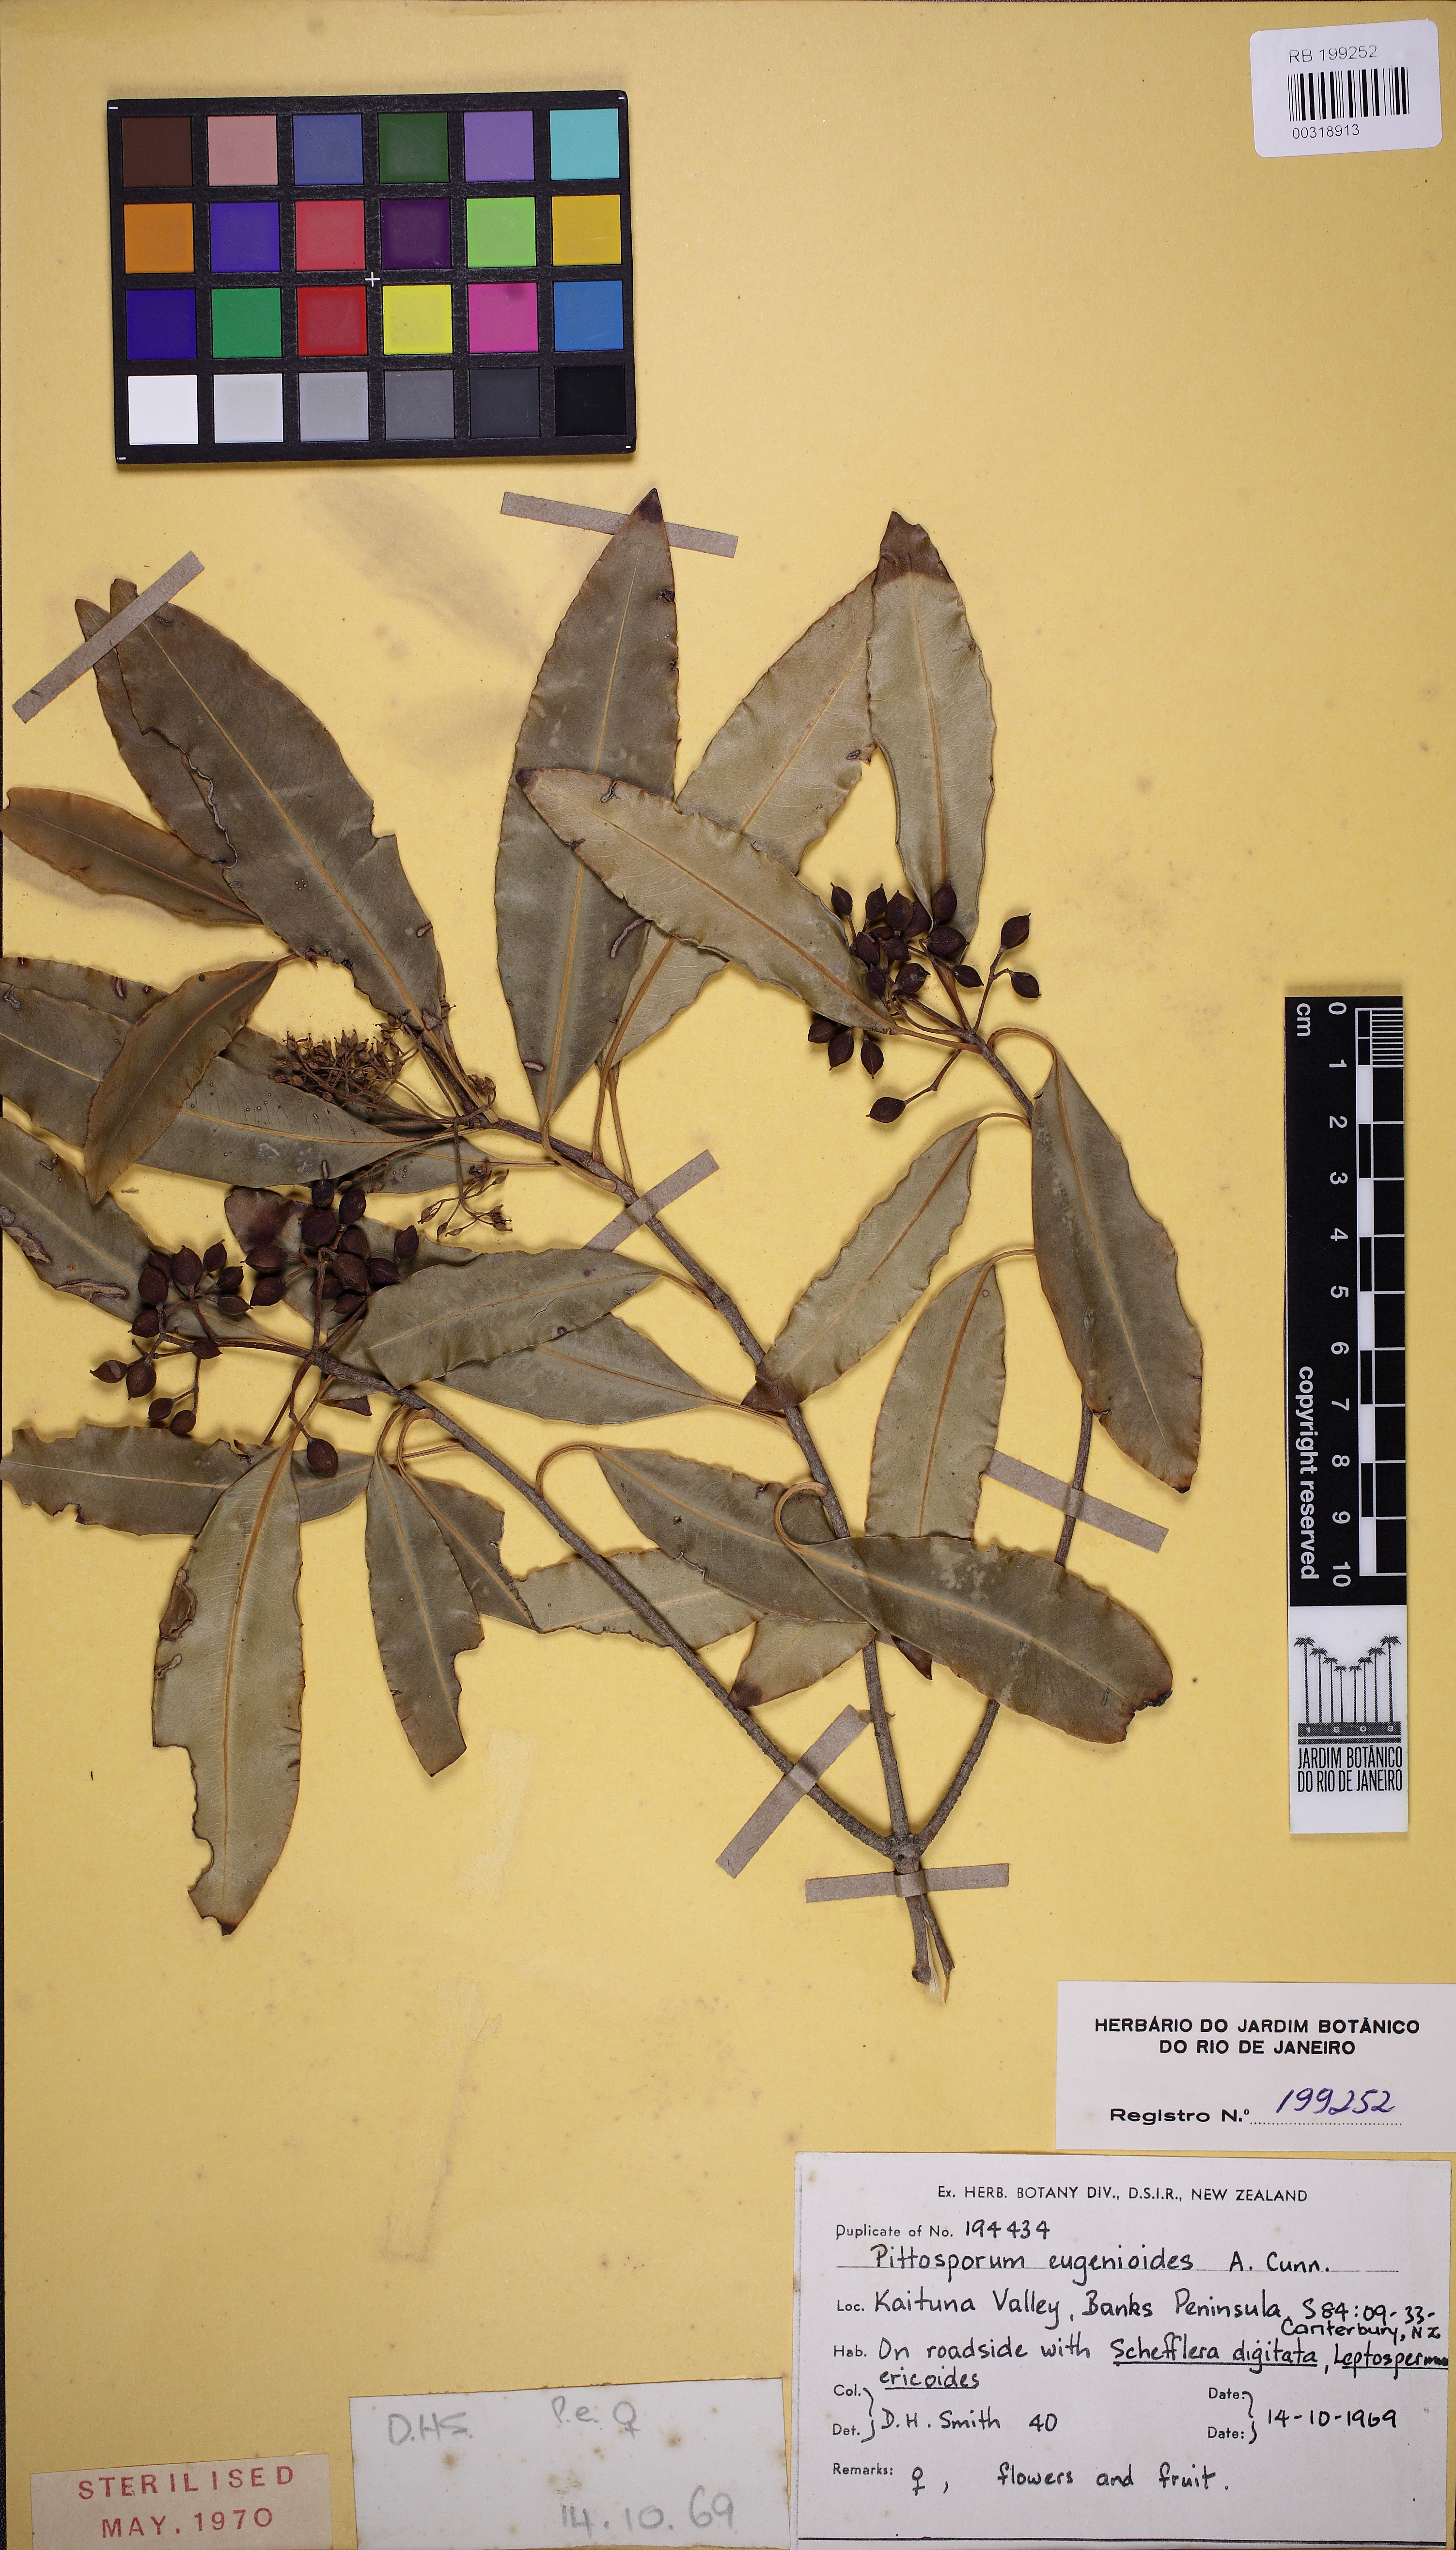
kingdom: Plantae
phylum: Tracheophyta
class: Magnoliopsida
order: Apiales
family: Pittosporaceae
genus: Pittosporum
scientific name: Pittosporum eugenioides
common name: Lemonwood
